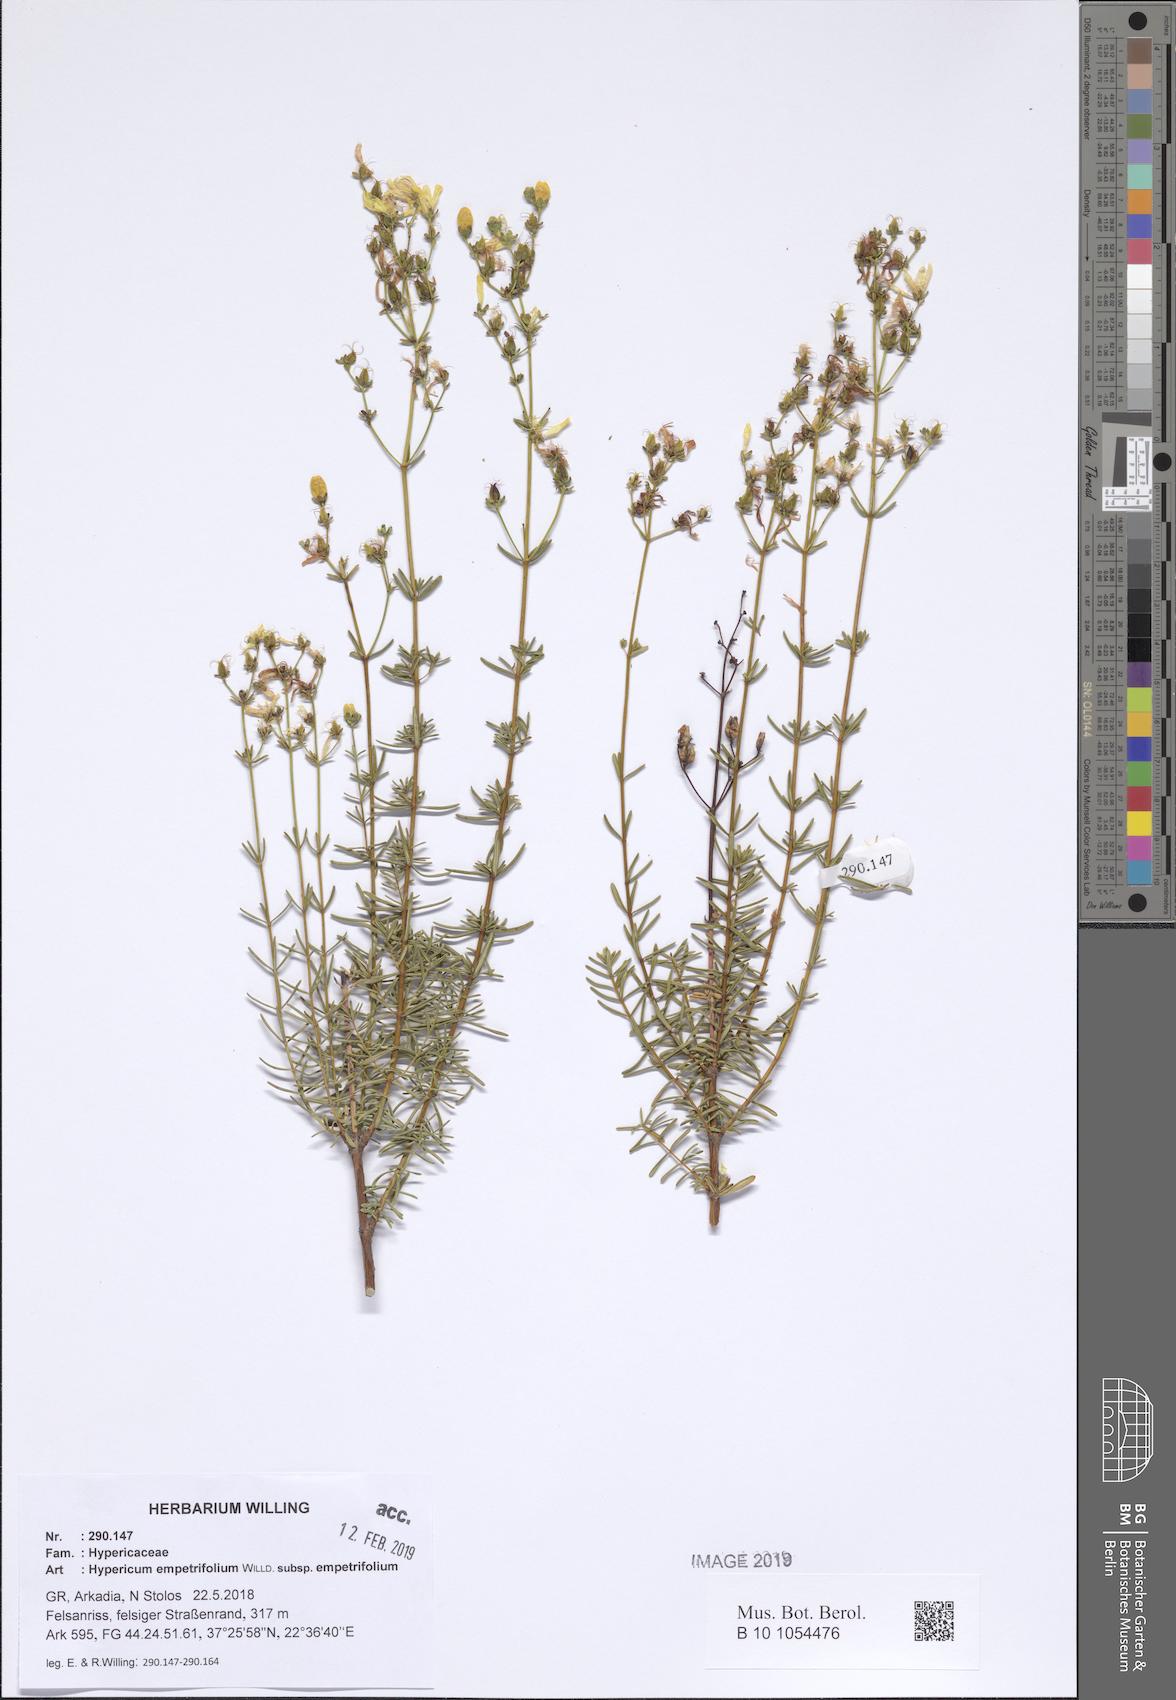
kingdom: Plantae
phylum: Tracheophyta
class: Magnoliopsida
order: Malpighiales
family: Hypericaceae
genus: Hypericum
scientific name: Hypericum empetrifolium
